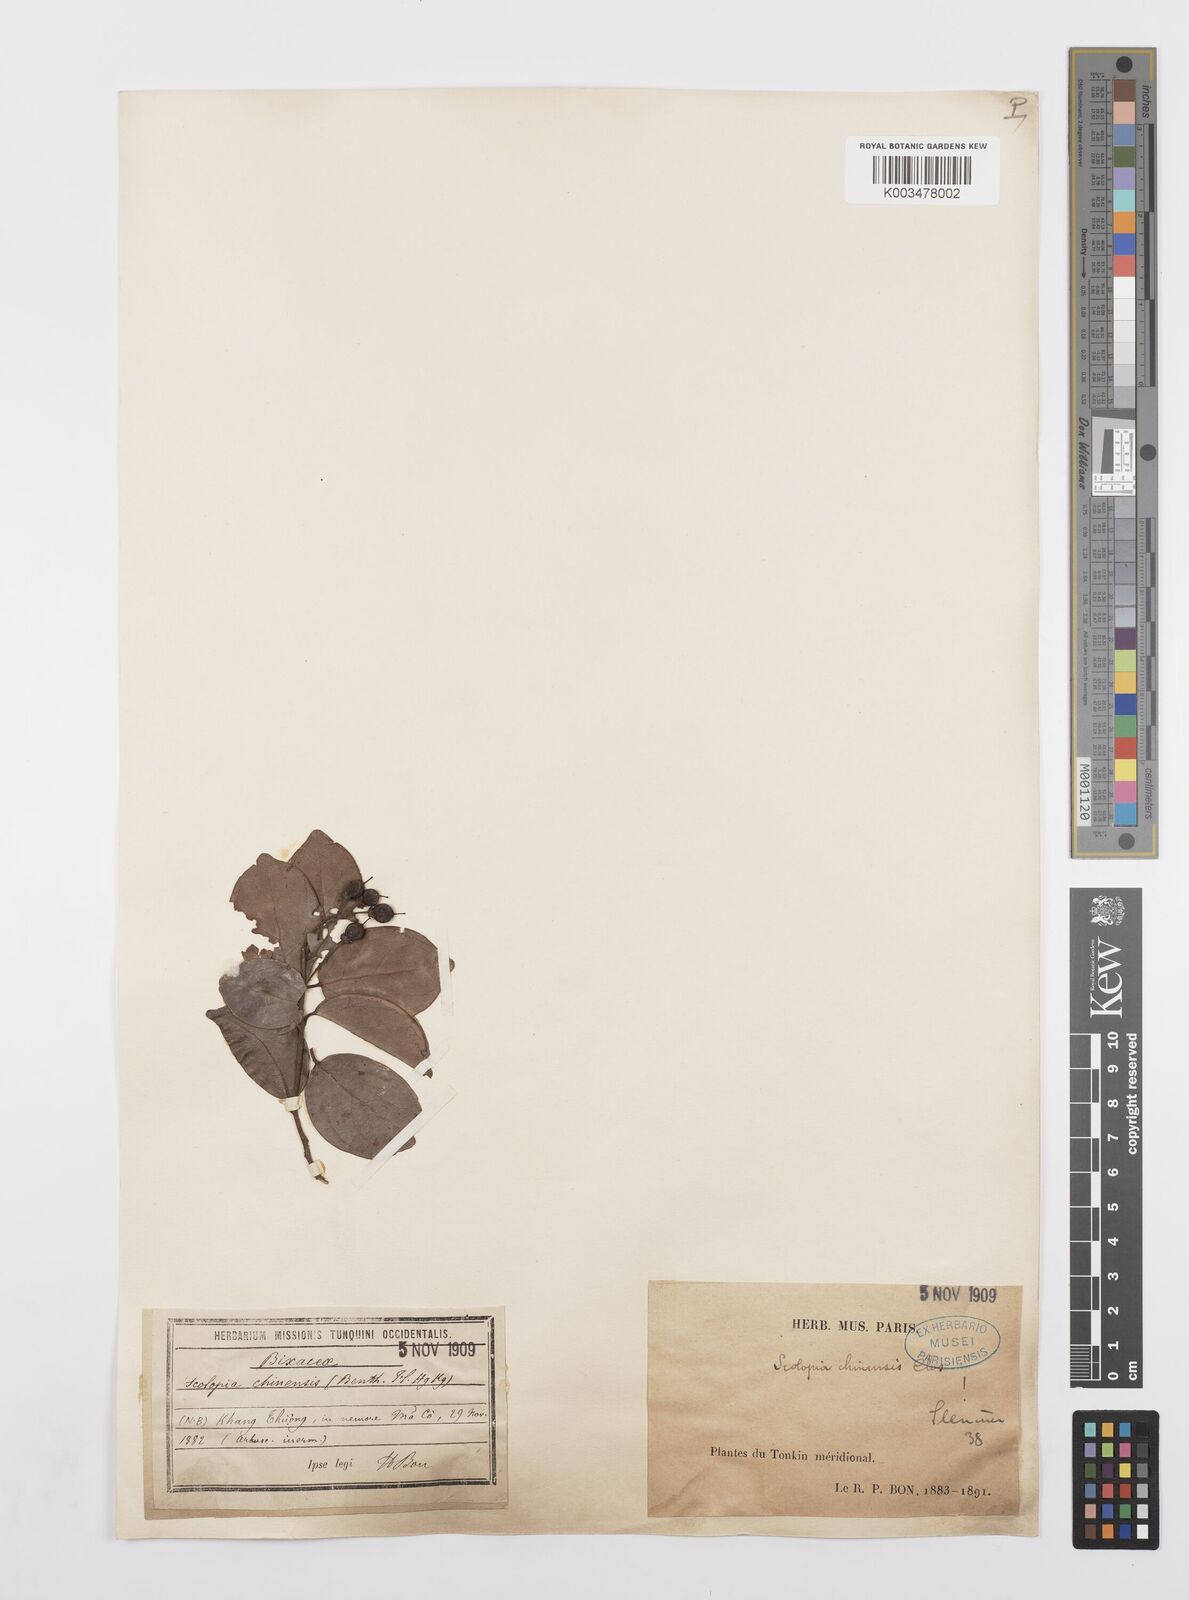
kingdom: Plantae
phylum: Tracheophyta
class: Magnoliopsida
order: Malpighiales
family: Salicaceae
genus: Scolopia
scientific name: Scolopia chinensis
